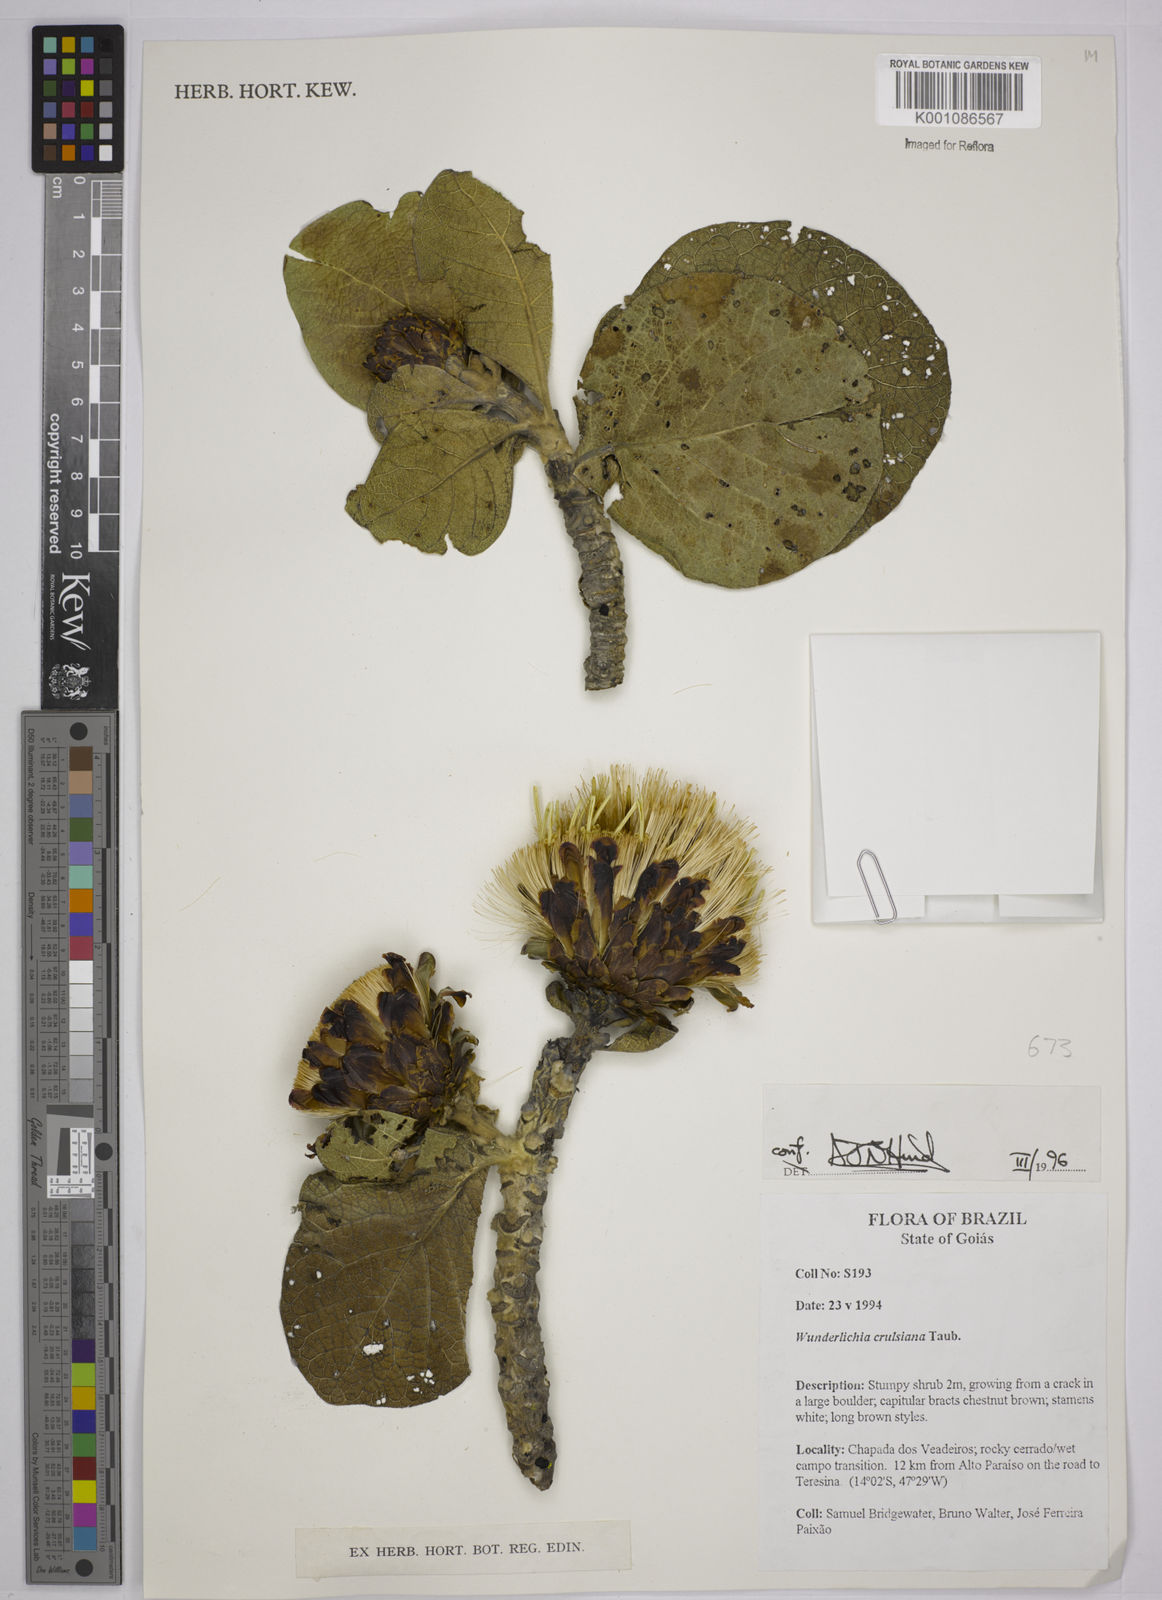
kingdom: Plantae
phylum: Tracheophyta
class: Magnoliopsida
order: Asterales
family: Asteraceae
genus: Wunderlichia
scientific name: Wunderlichia
